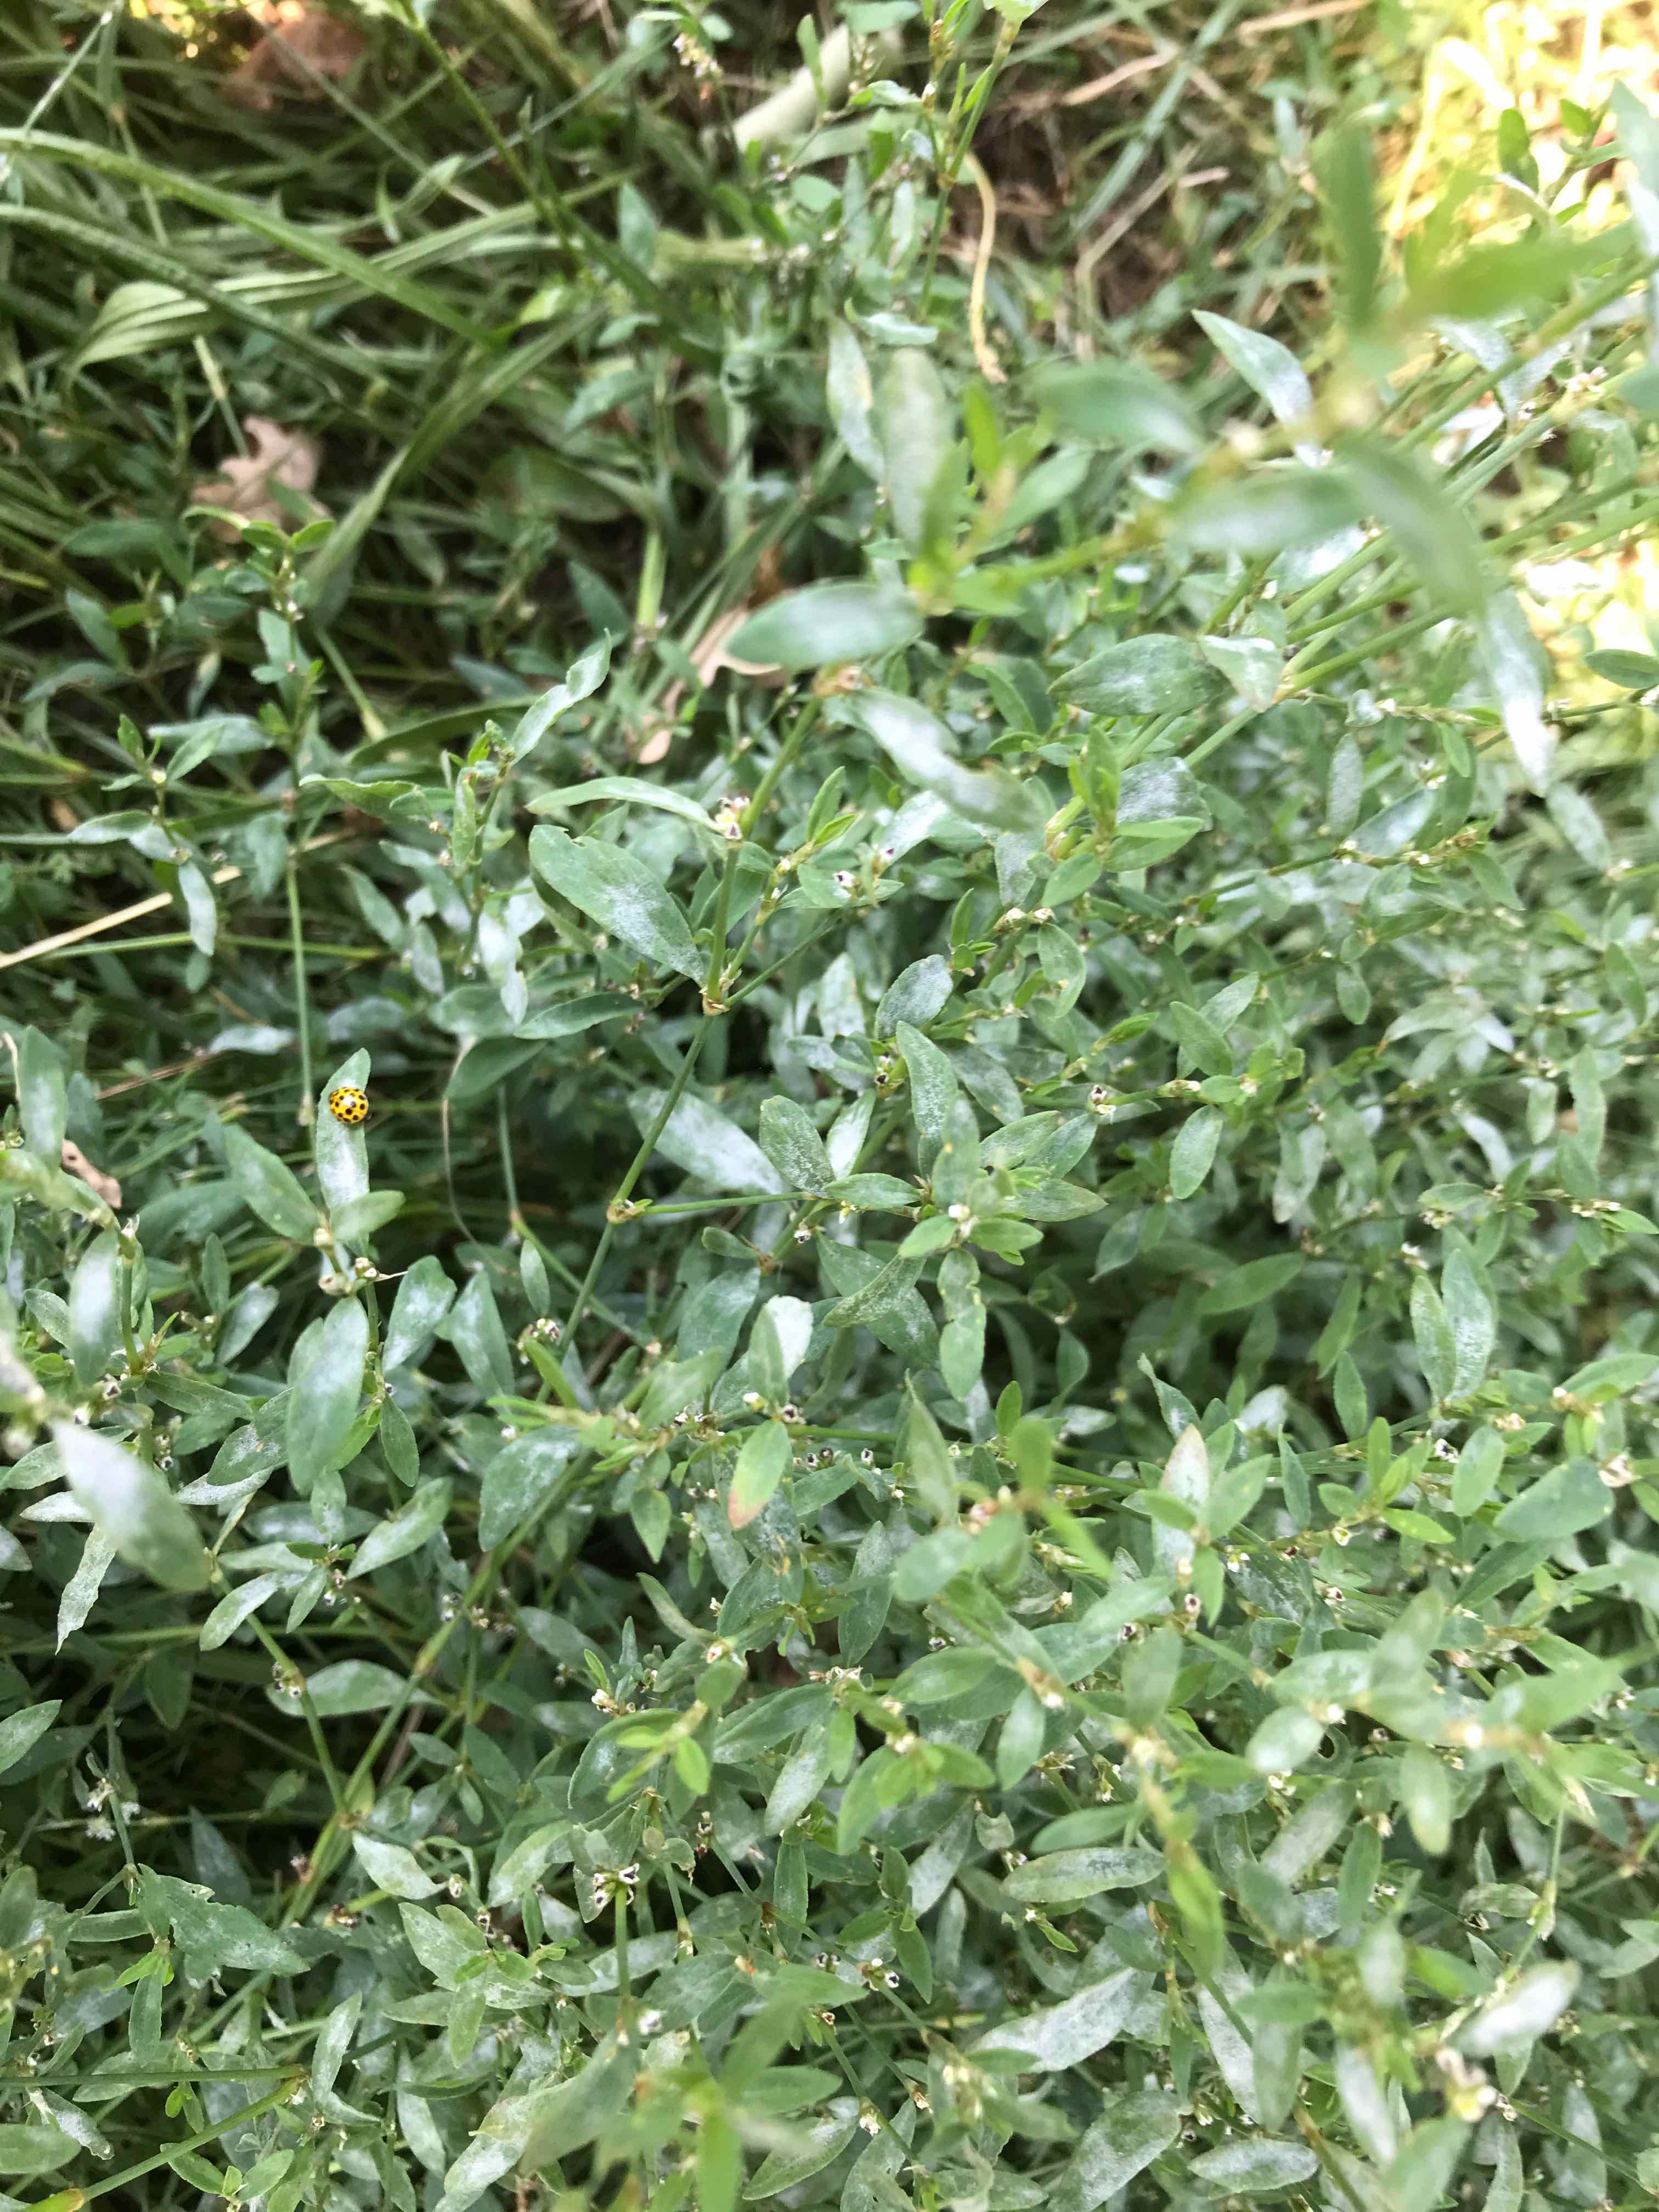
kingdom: Fungi
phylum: Ascomycota
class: Leotiomycetes
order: Helotiales
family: Erysiphaceae
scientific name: Erysiphaceae
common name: meldugfamilien
